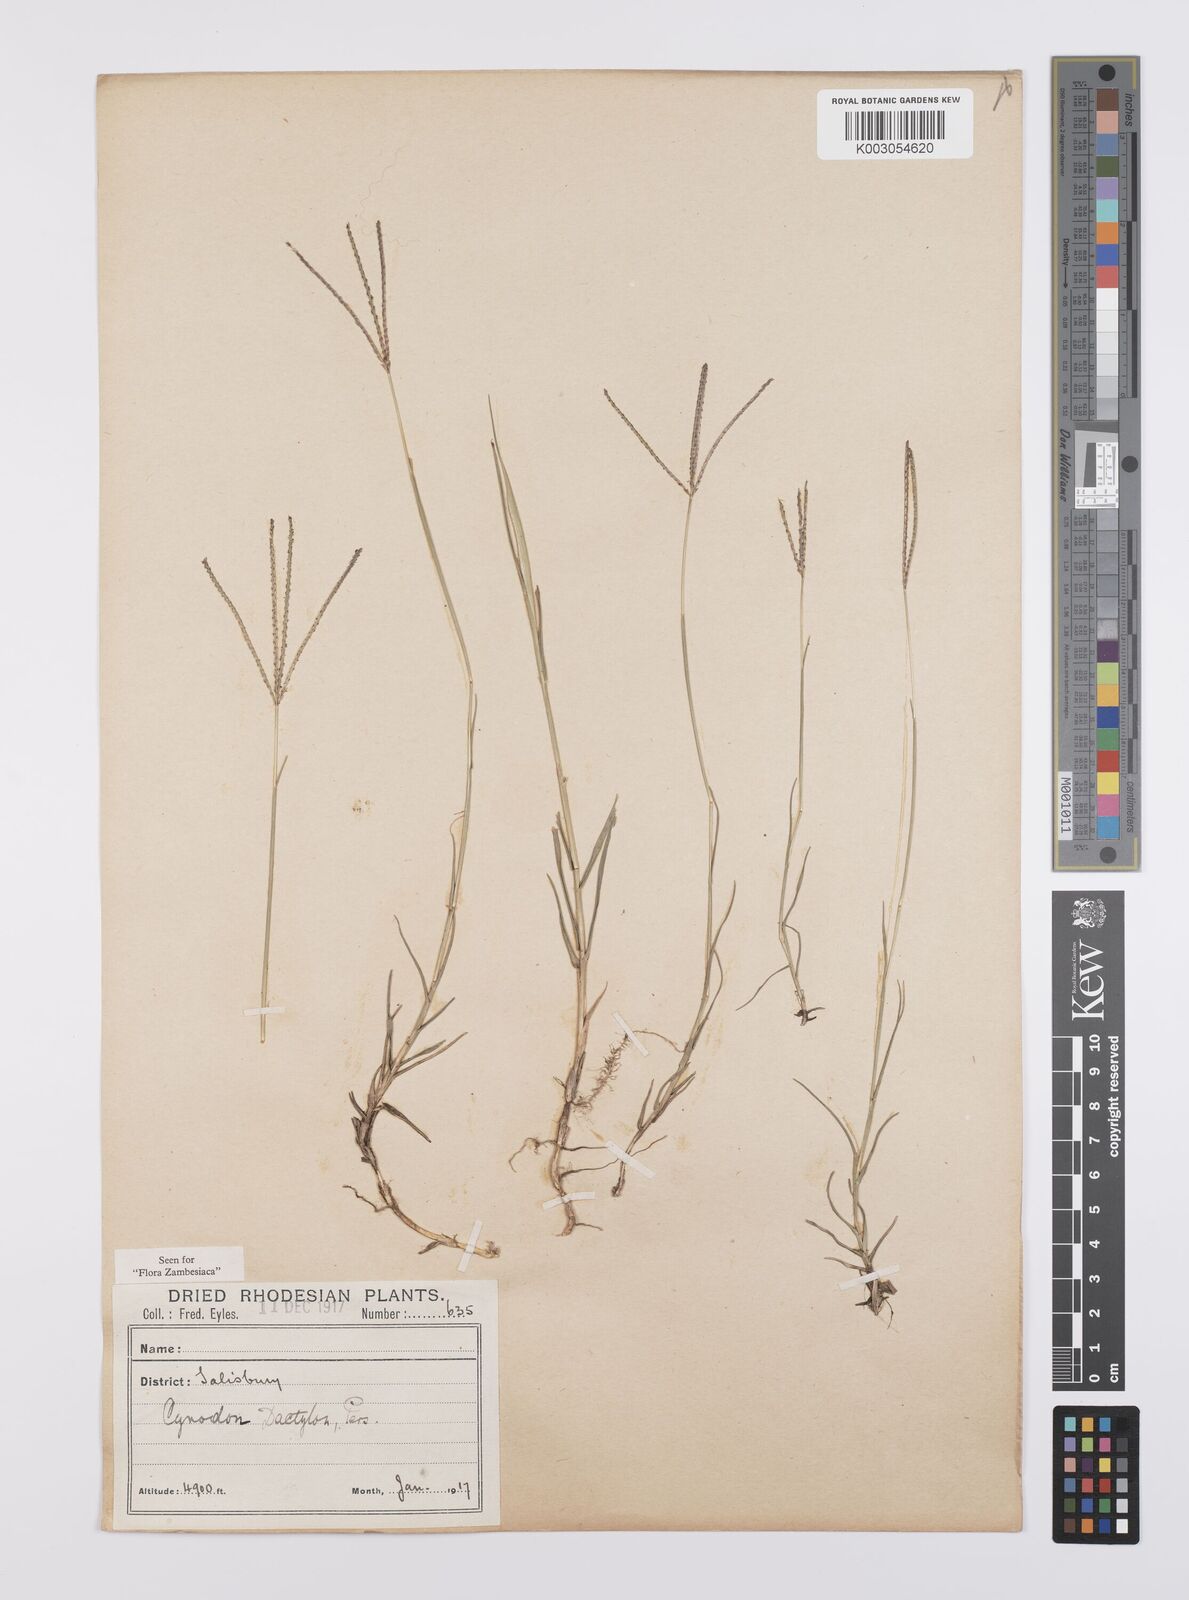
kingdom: Plantae
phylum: Tracheophyta
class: Liliopsida
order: Poales
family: Poaceae
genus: Cynodon
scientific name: Cynodon dactylon
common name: Bermuda grass
